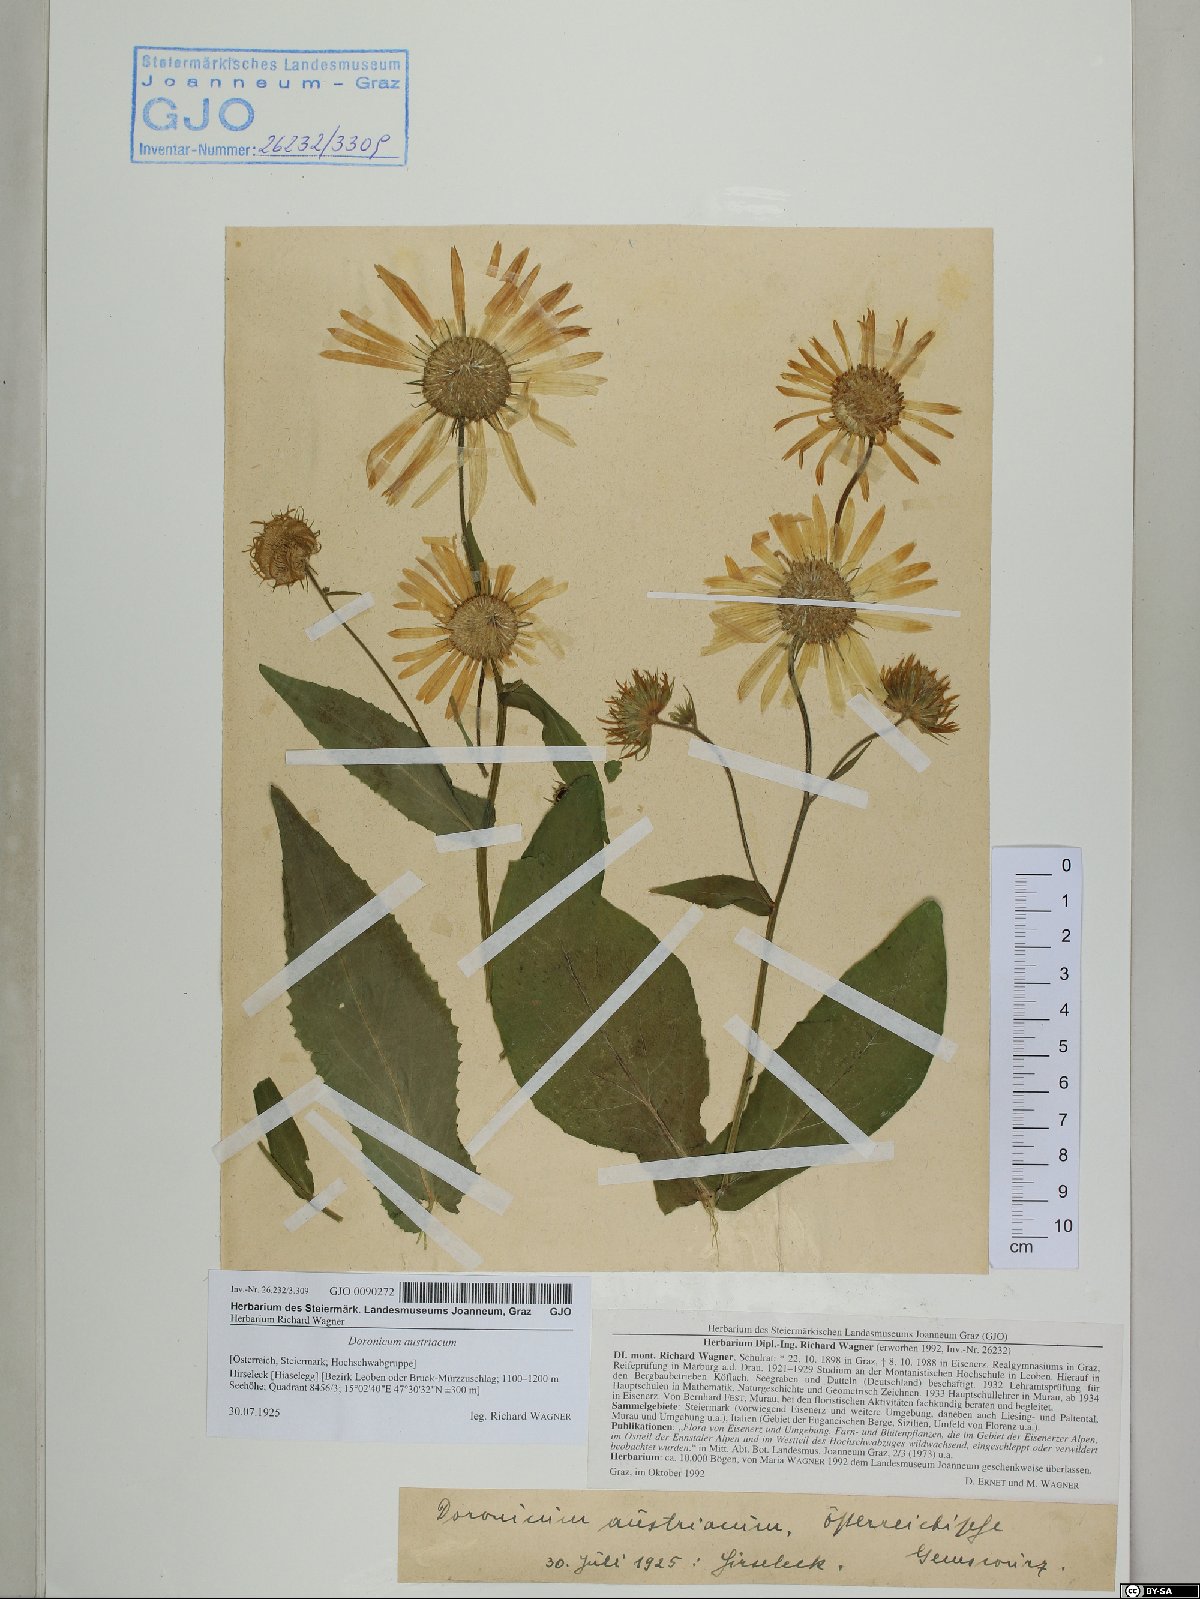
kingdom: Plantae
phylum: Tracheophyta
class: Magnoliopsida
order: Asterales
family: Asteraceae
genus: Doronicum
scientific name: Doronicum austriacum
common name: Austrian leopard's-bane
